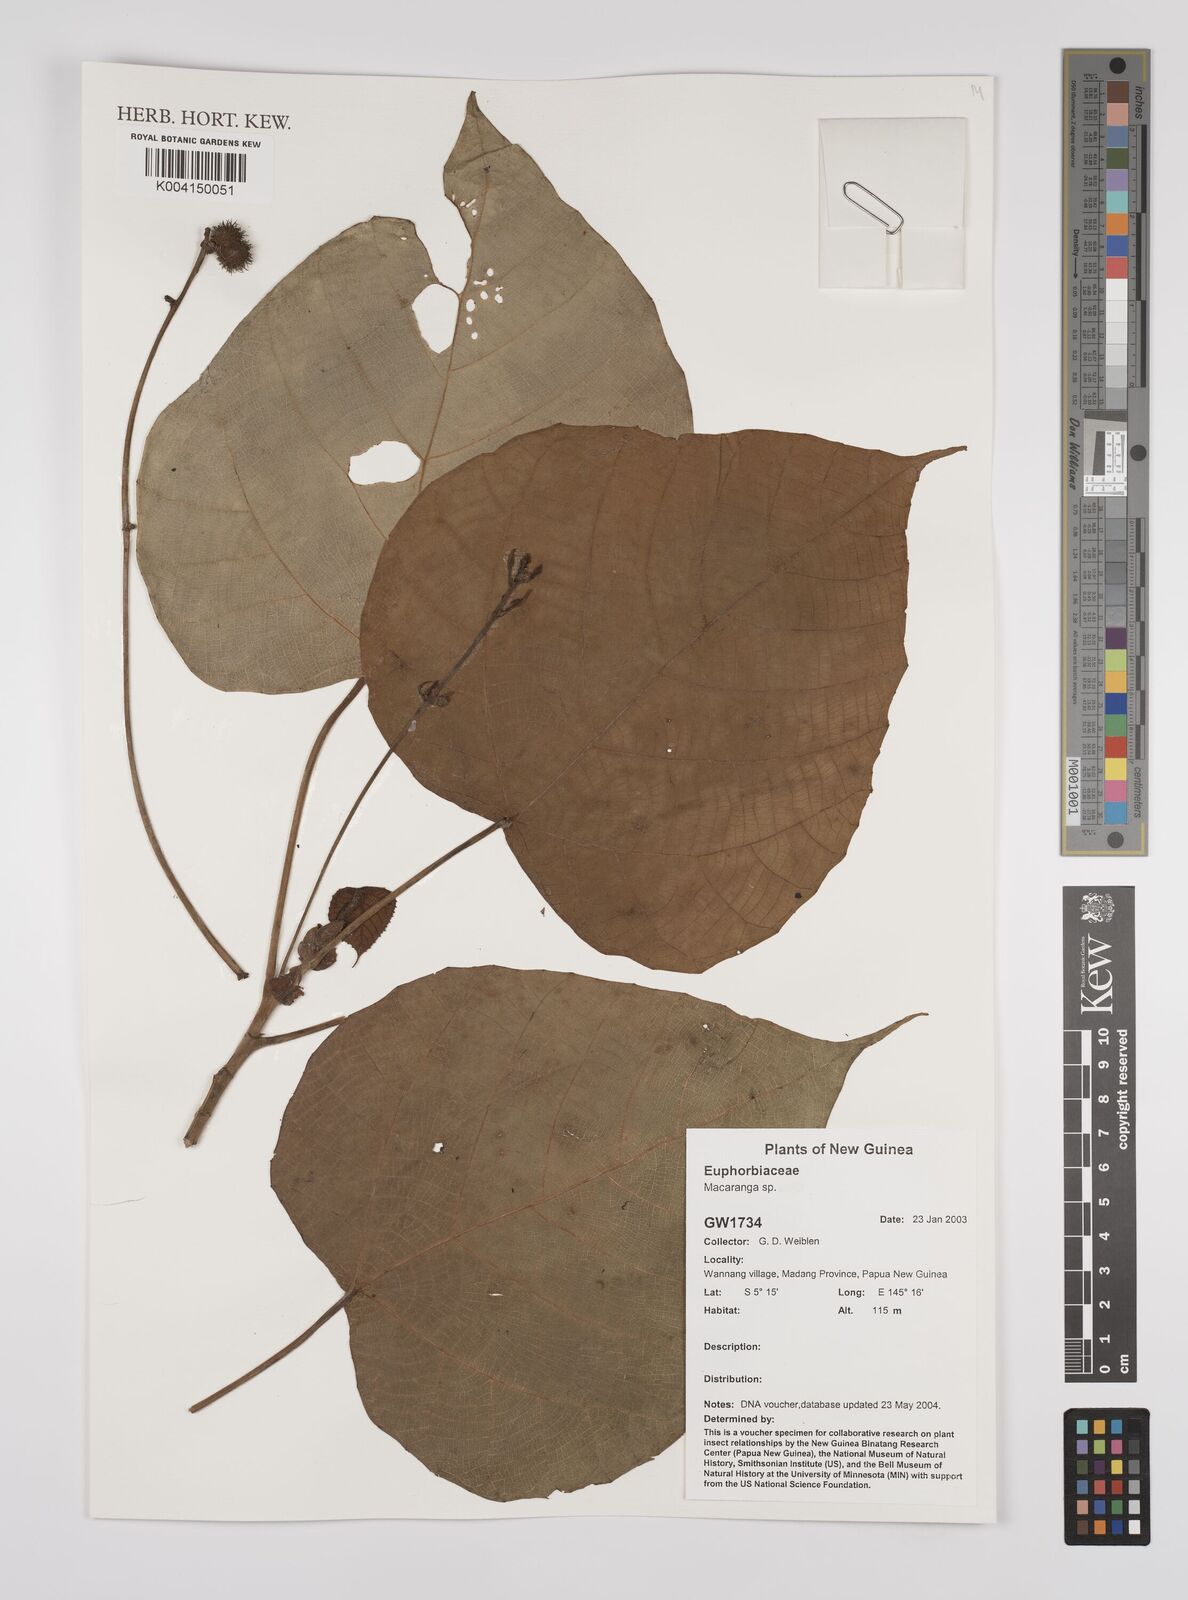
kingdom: Plantae
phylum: Tracheophyta
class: Magnoliopsida
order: Malpighiales
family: Euphorbiaceae
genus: Macaranga
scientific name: Macaranga
